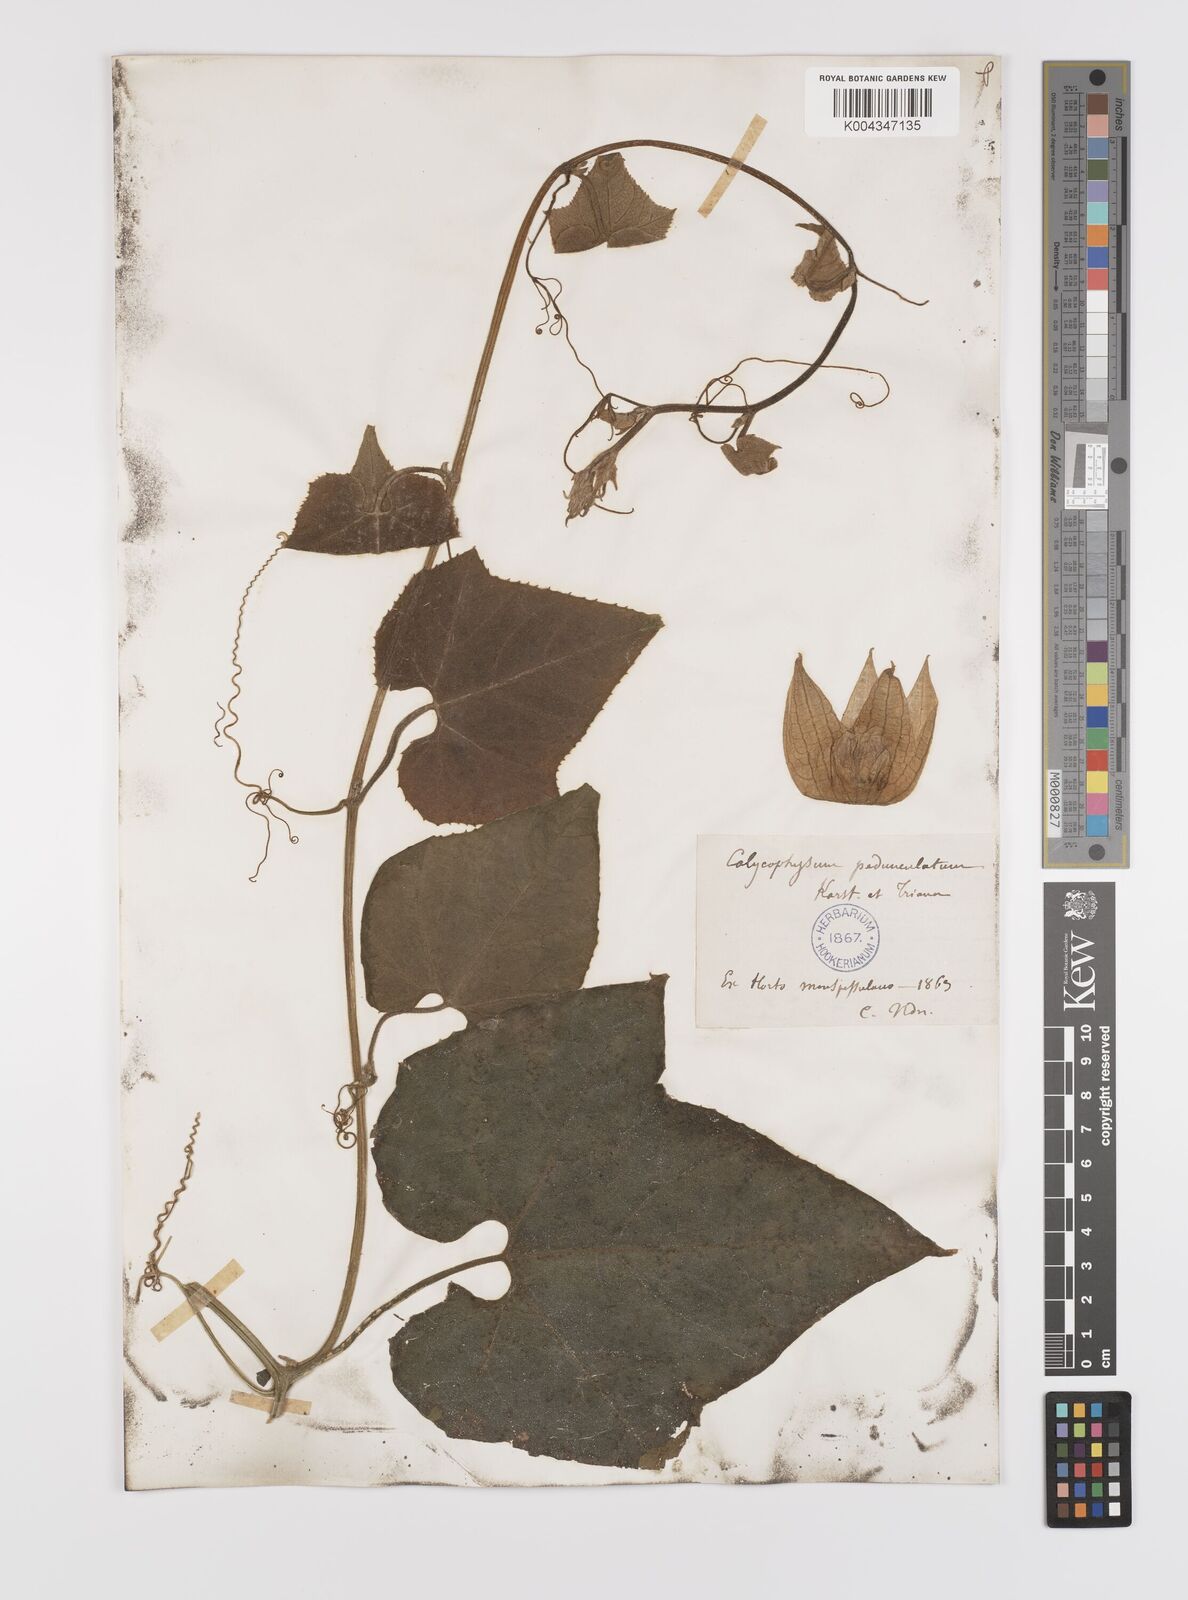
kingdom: Plantae
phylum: Tracheophyta
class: Magnoliopsida
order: Cucurbitales
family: Cucurbitaceae
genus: Calycophysum
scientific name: Calycophysum pedunculatum
